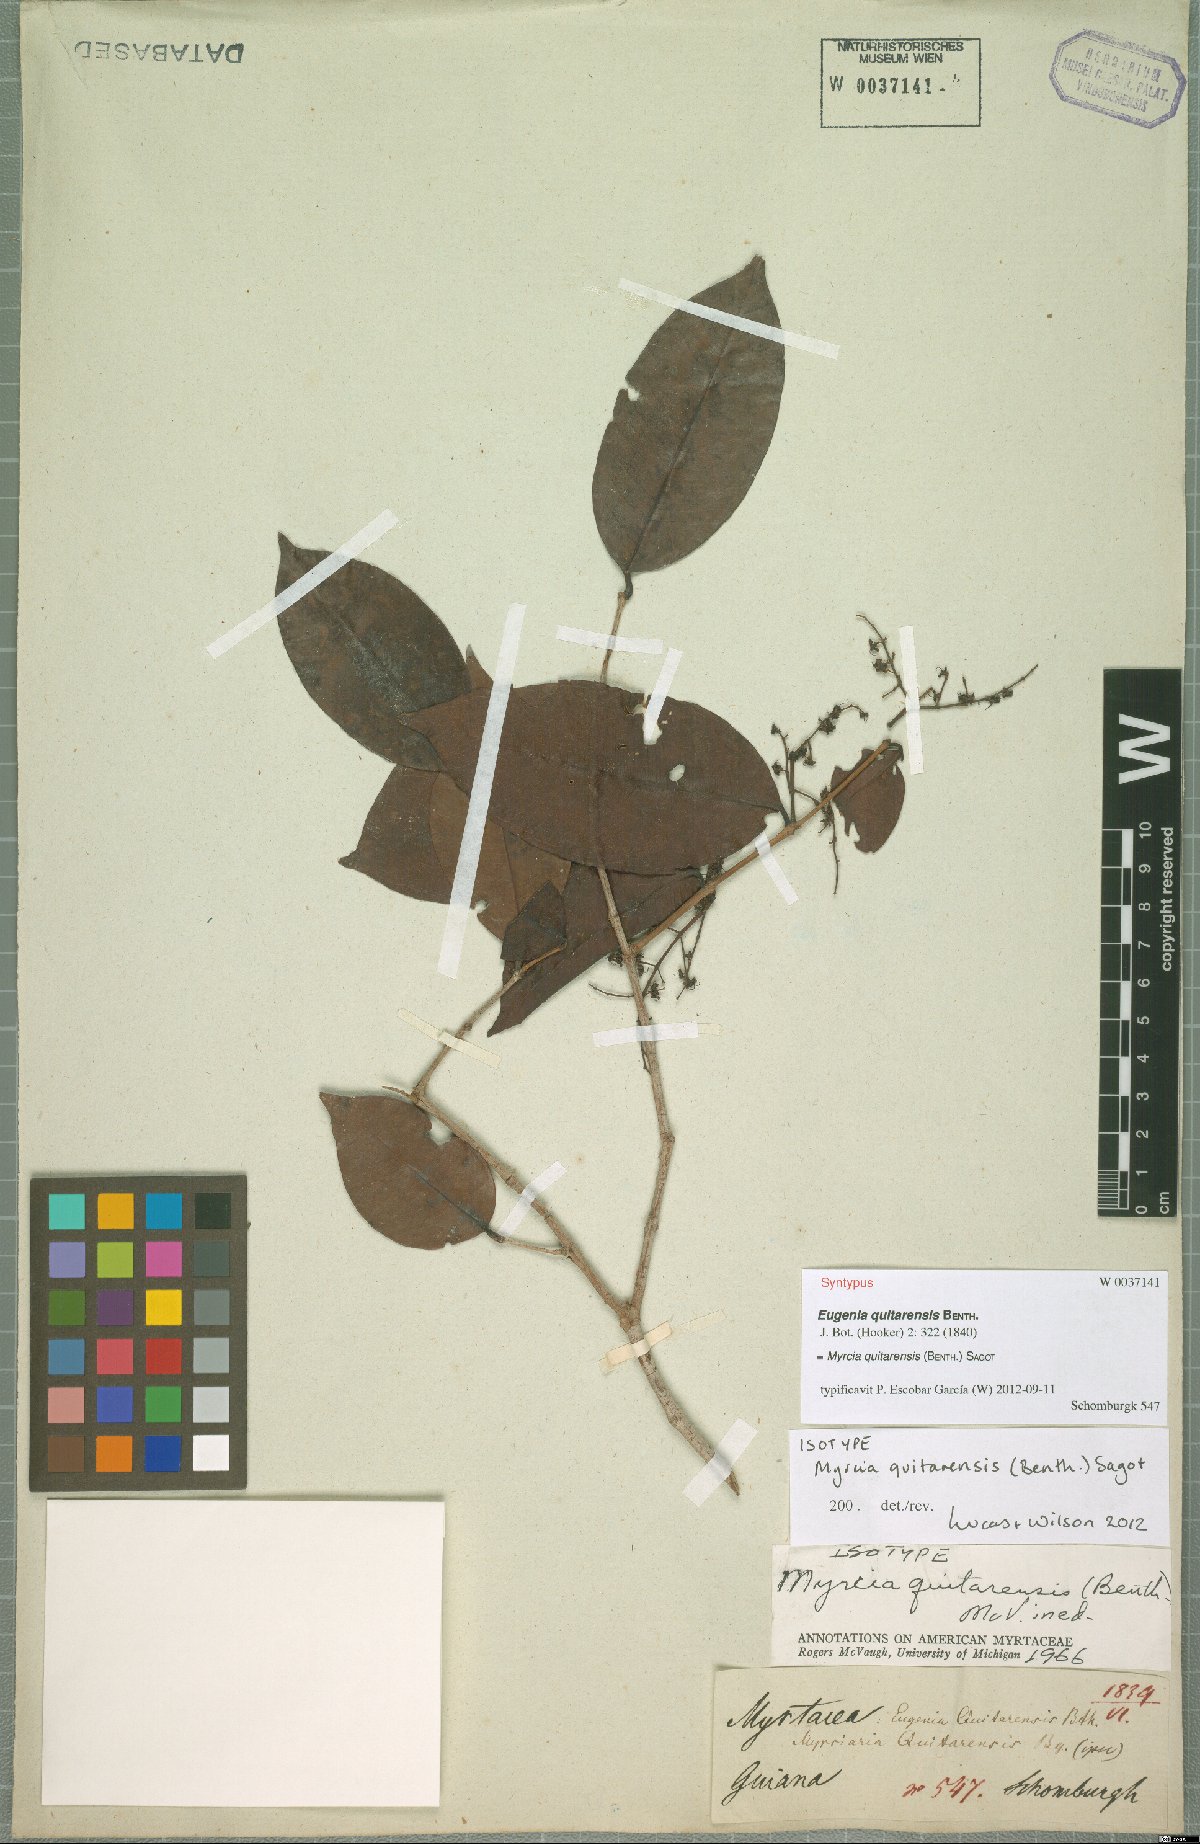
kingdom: Plantae
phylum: Tracheophyta
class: Magnoliopsida
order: Myrtales
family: Myrtaceae
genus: Myrcia
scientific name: Myrcia quitarensis
